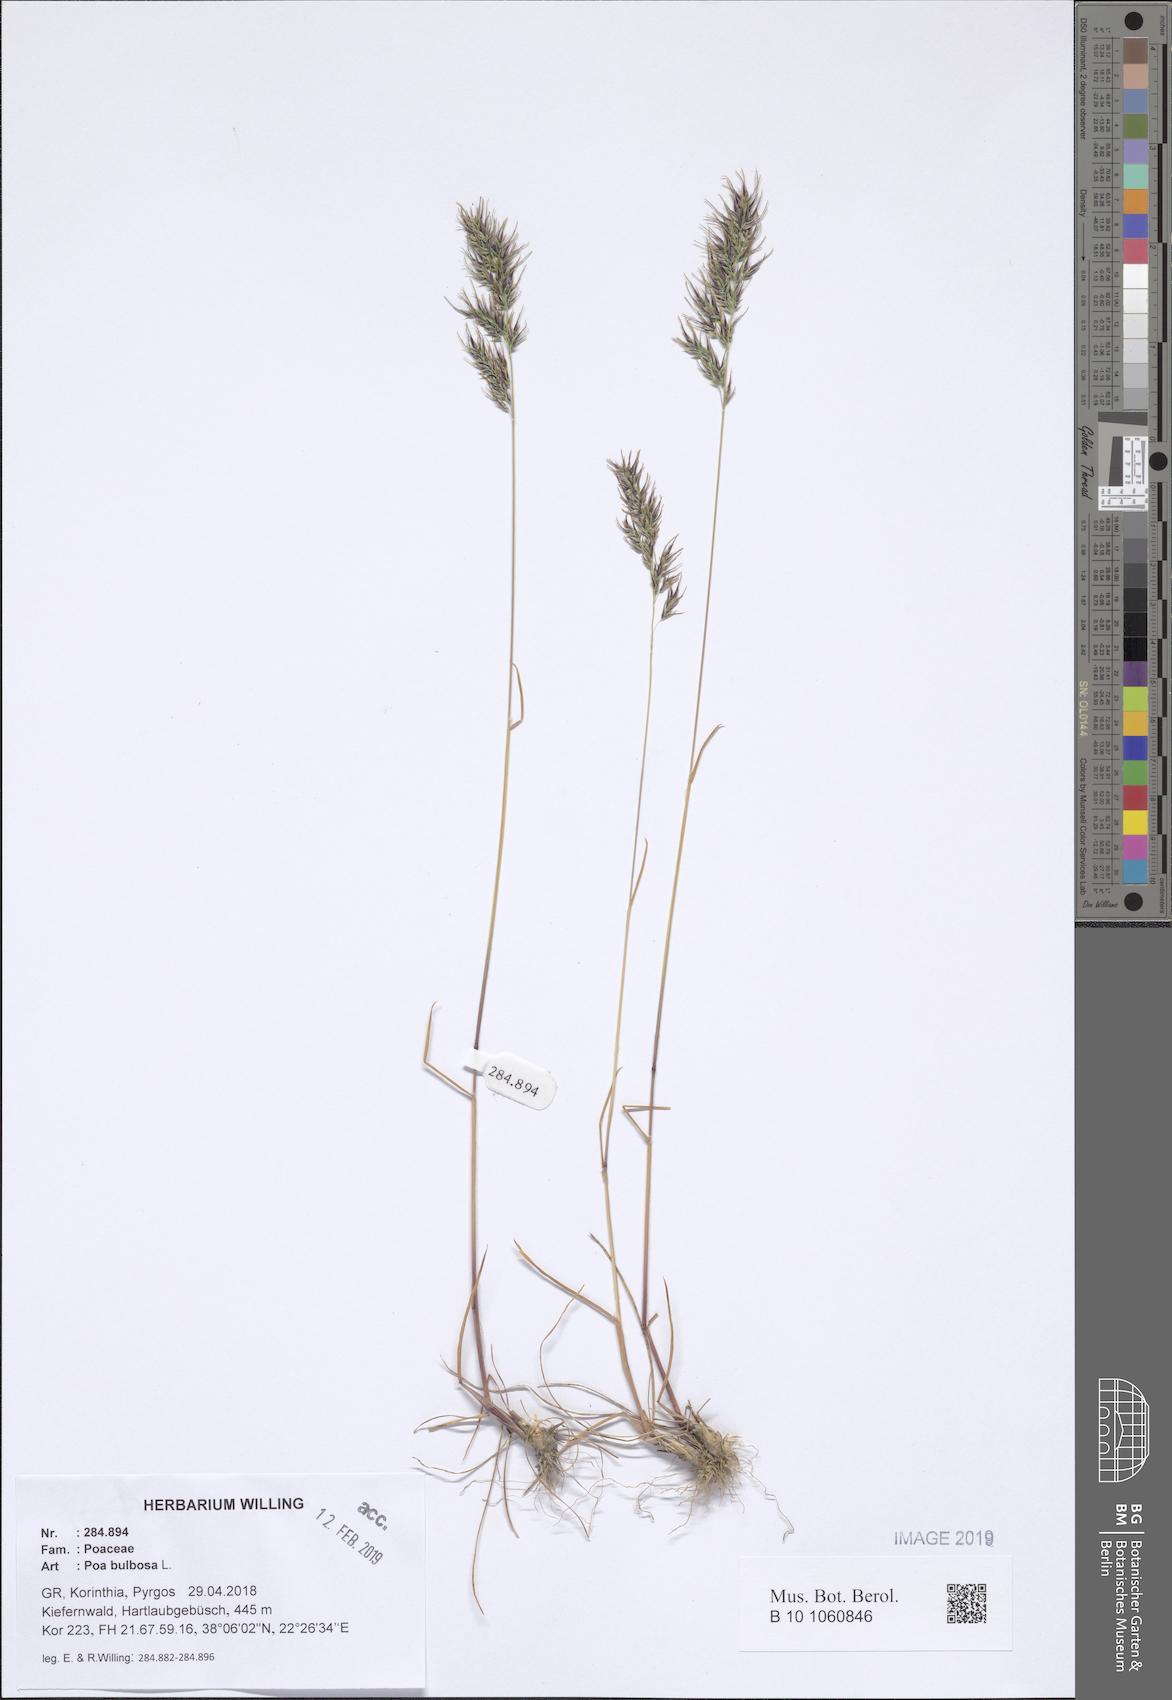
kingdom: Plantae
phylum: Tracheophyta
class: Liliopsida
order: Poales
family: Poaceae
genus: Poa
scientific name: Poa bulbosa
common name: Bulbous bluegrass
